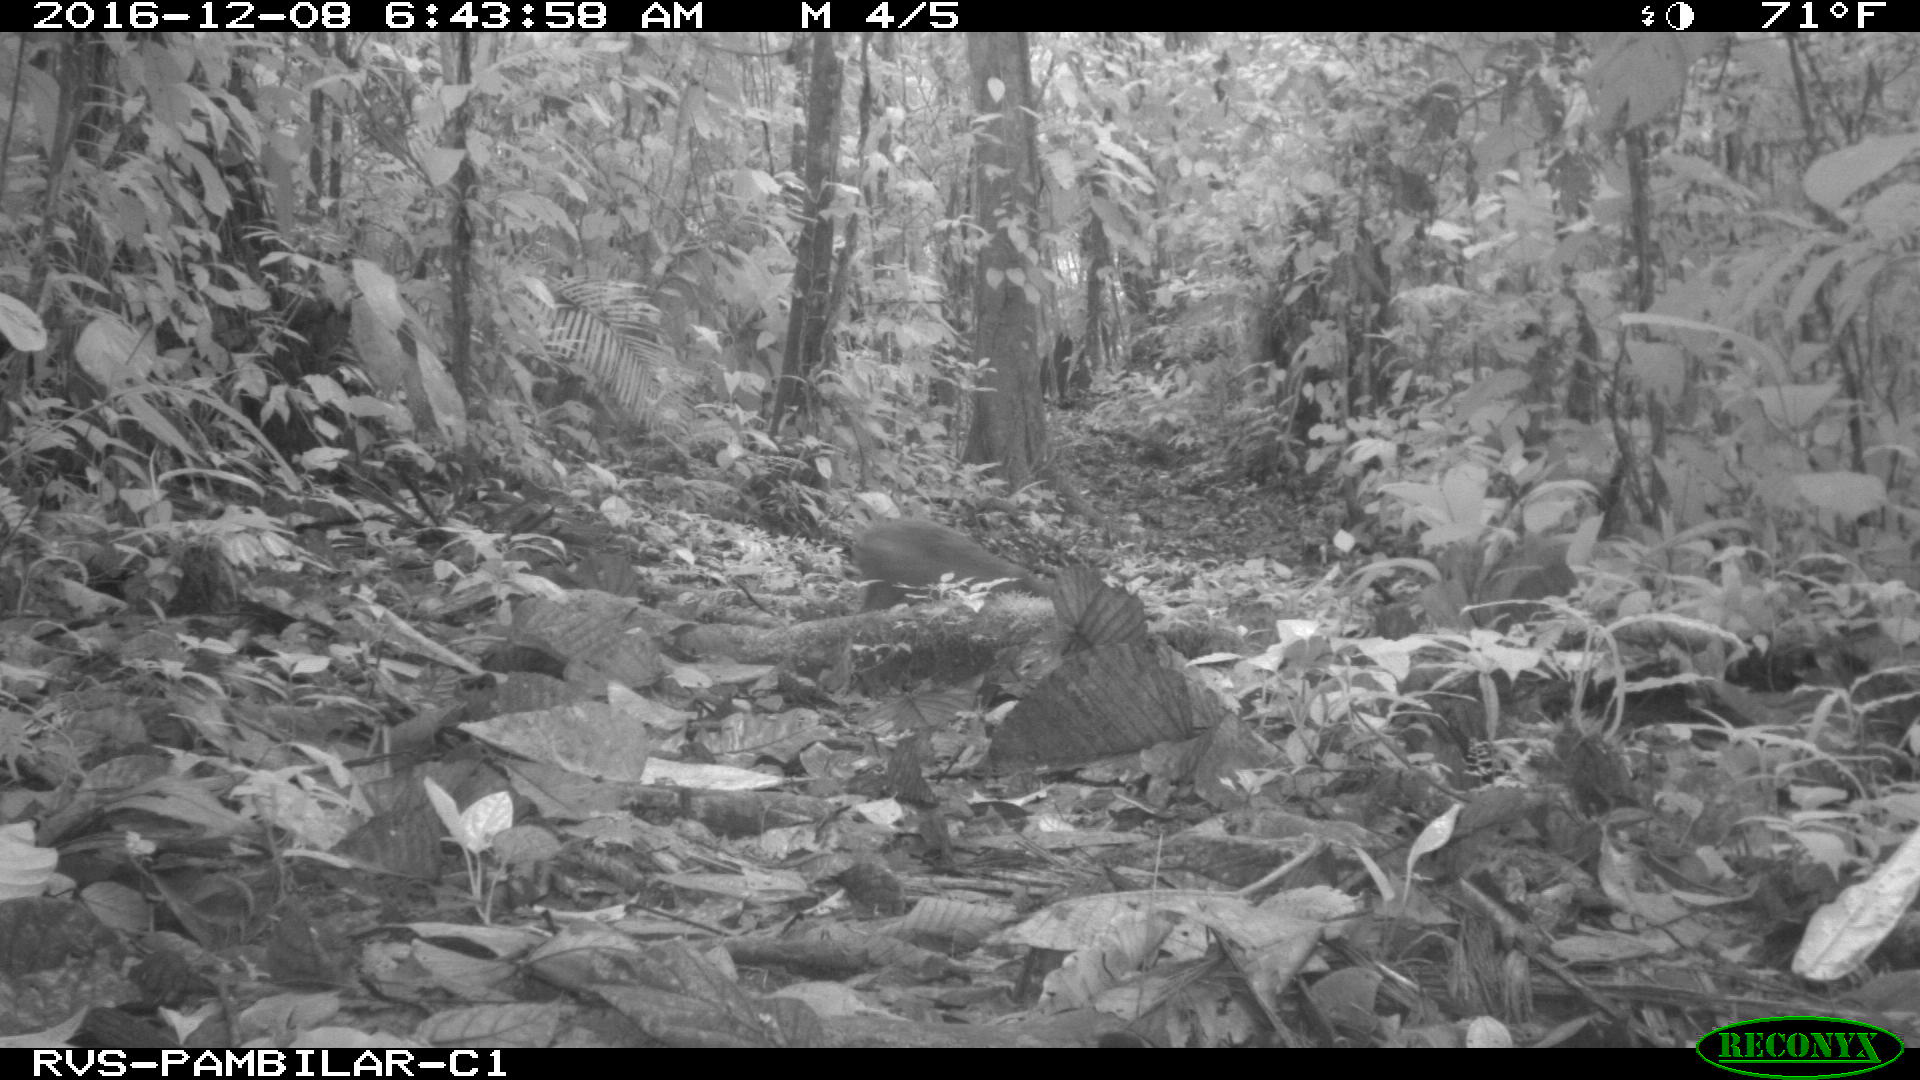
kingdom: Animalia
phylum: Chordata
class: Mammalia
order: Rodentia
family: Dasyproctidae
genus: Dasyprocta
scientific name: Dasyprocta punctata
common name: Central american agouti
